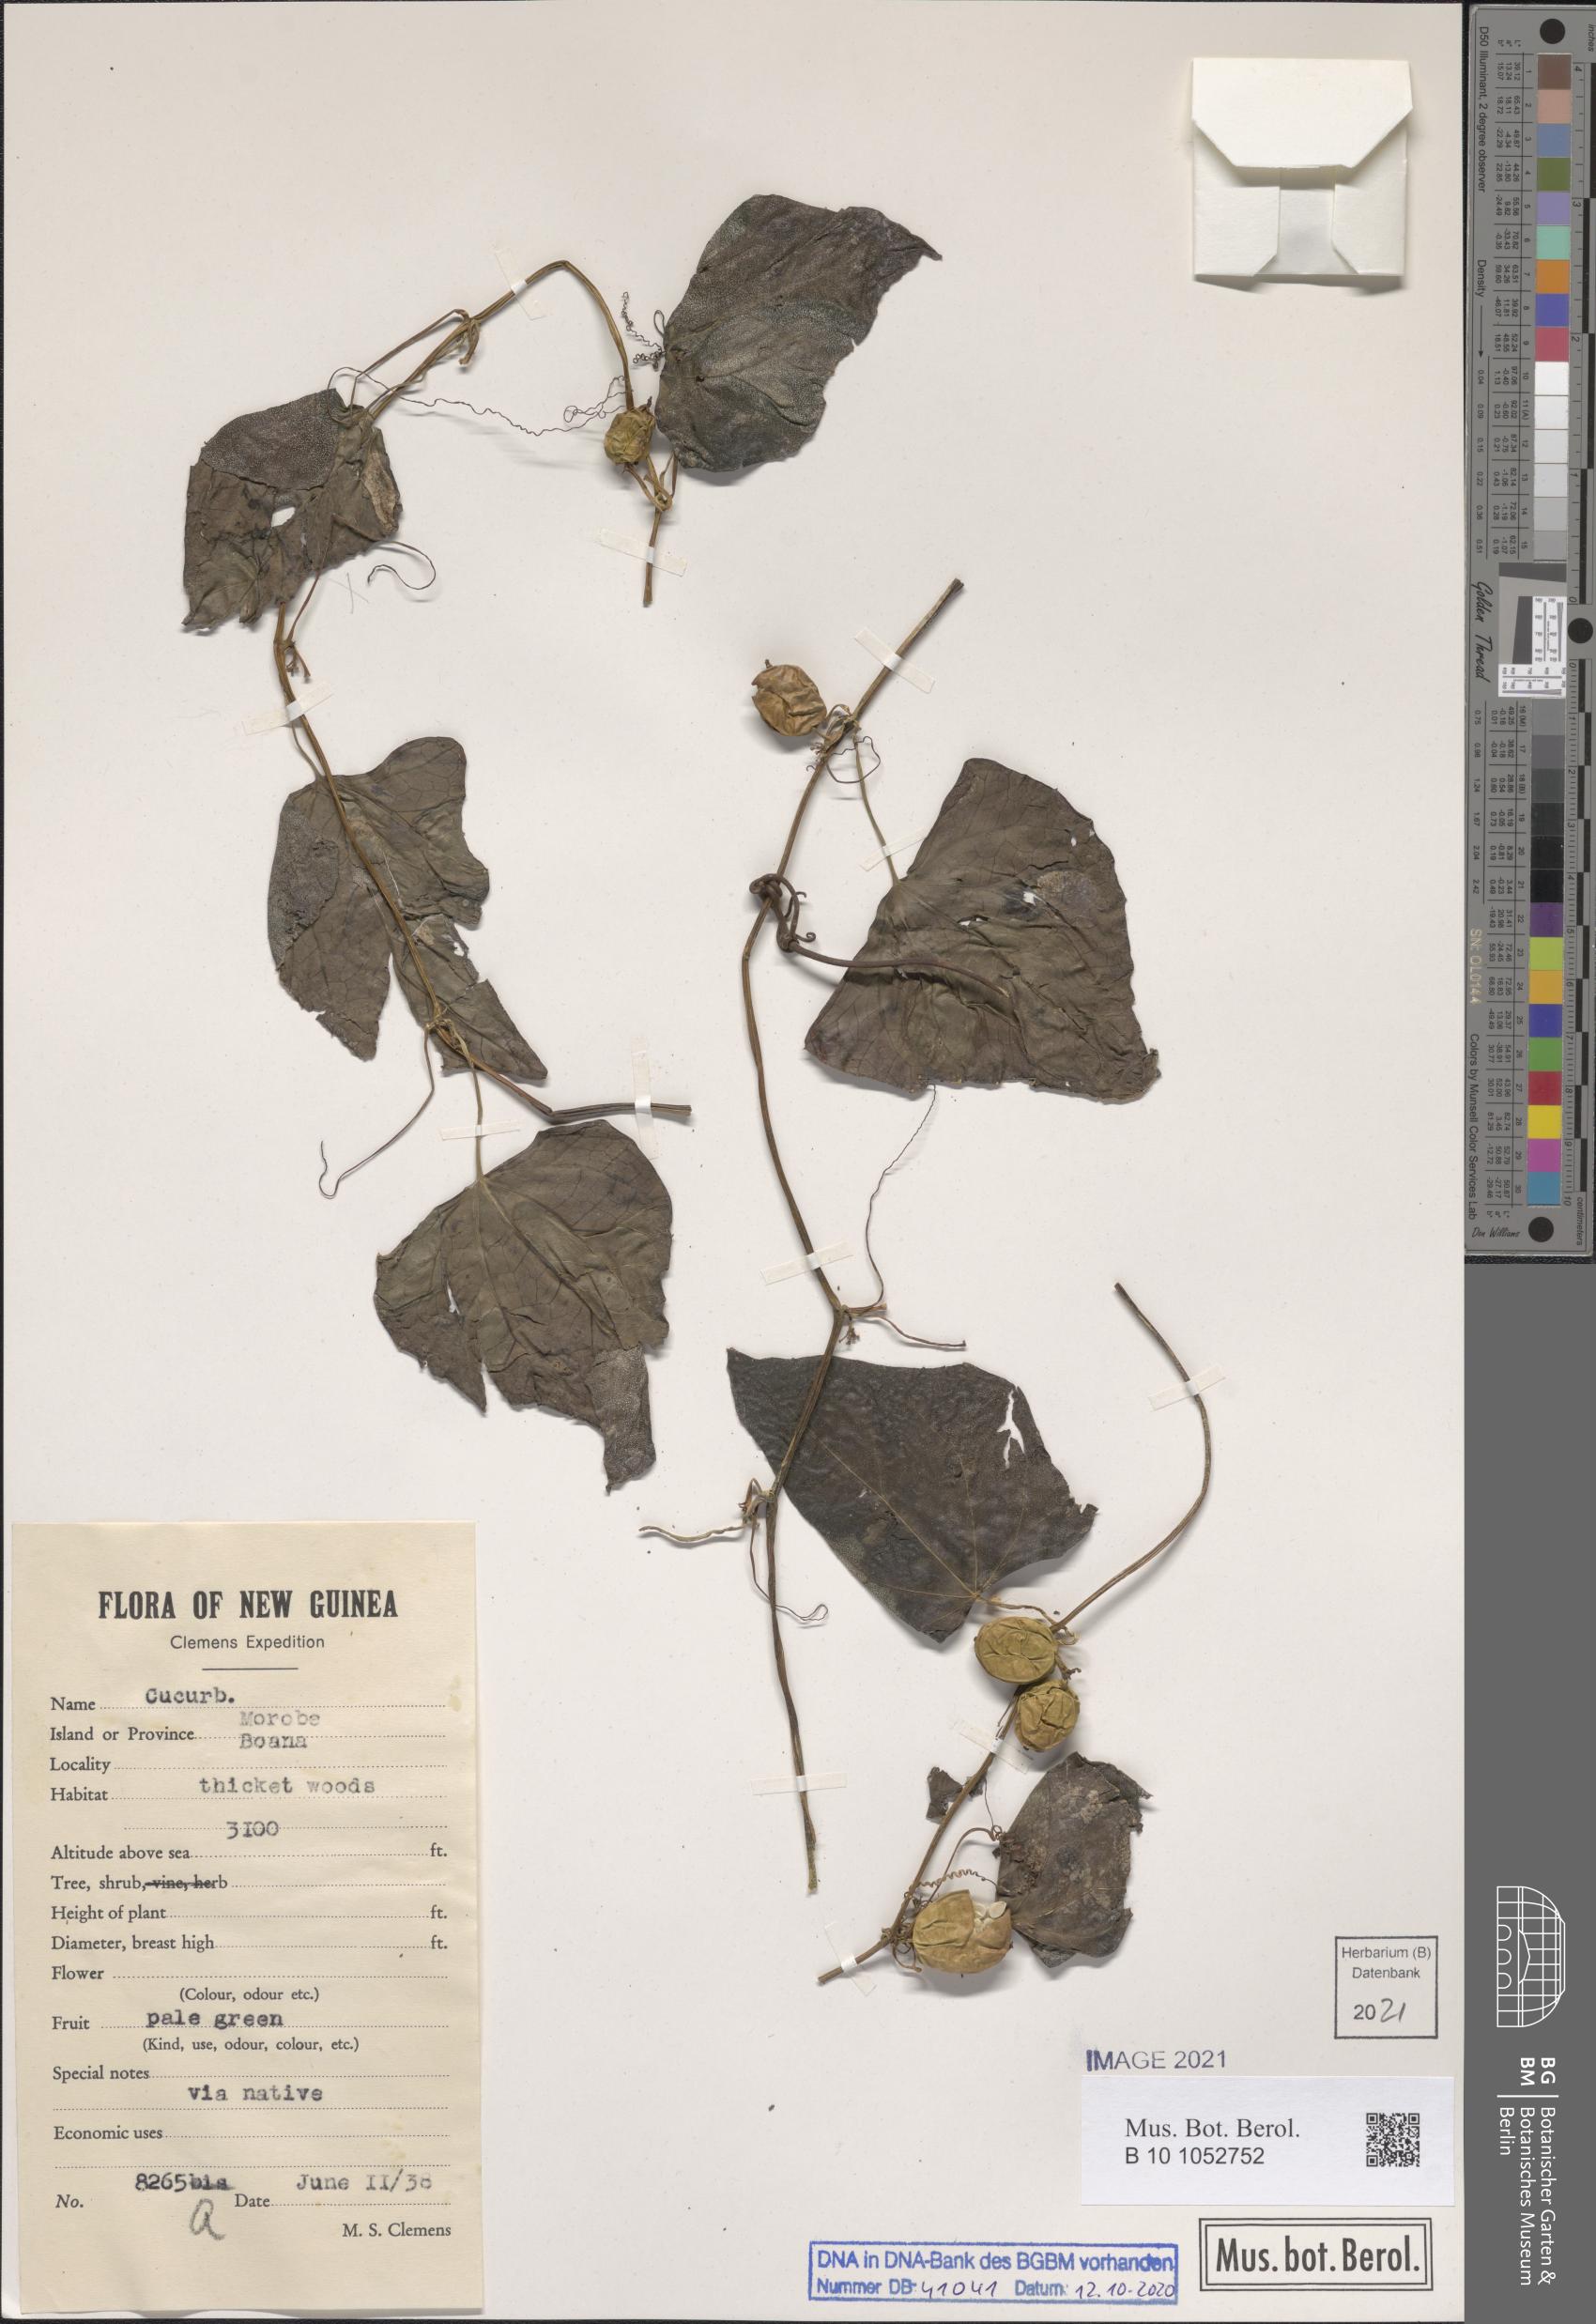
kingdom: Plantae
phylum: Tracheophyta
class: Magnoliopsida
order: Cucurbitales
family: Cucurbitaceae
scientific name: Cucurbitaceae
